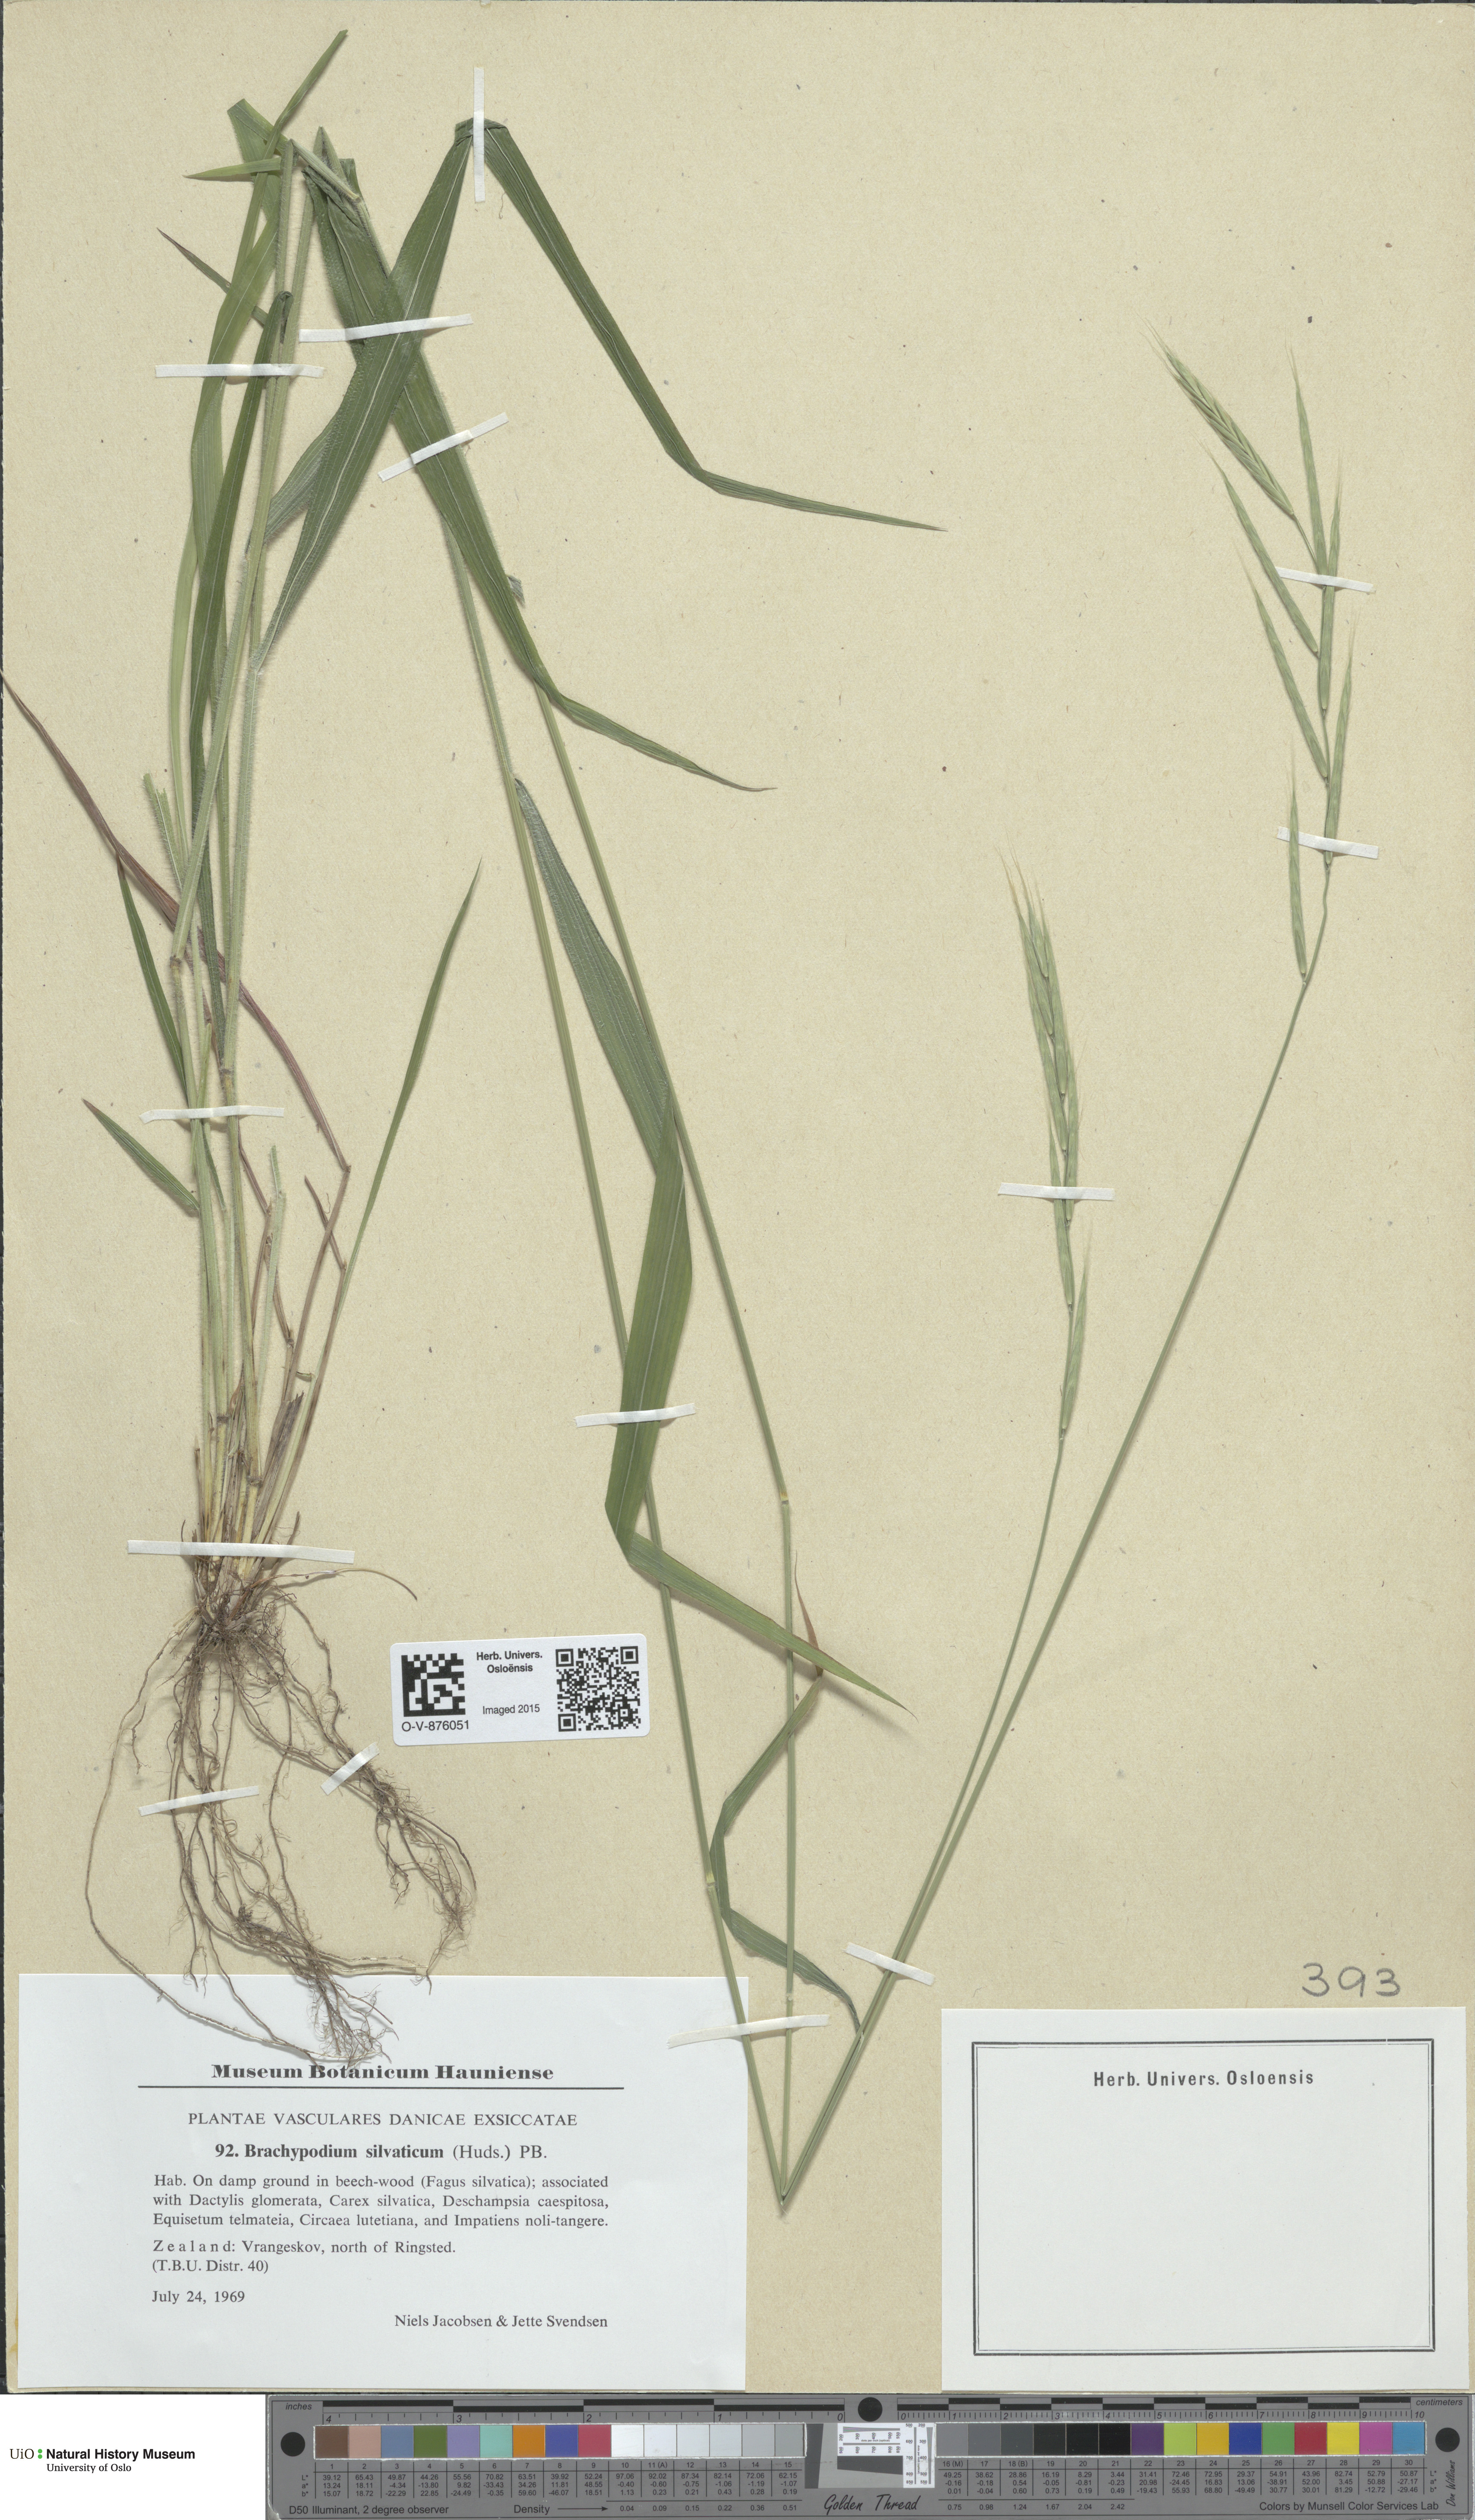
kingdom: Plantae
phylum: Tracheophyta
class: Liliopsida
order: Poales
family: Poaceae
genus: Brachypodium
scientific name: Brachypodium sylvaticum
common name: False-brome
